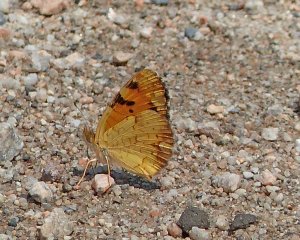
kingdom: Animalia
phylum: Arthropoda
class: Insecta
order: Lepidoptera
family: Nymphalidae
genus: Phyciodes
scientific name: Phyciodes tharos
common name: Northern Crescent
